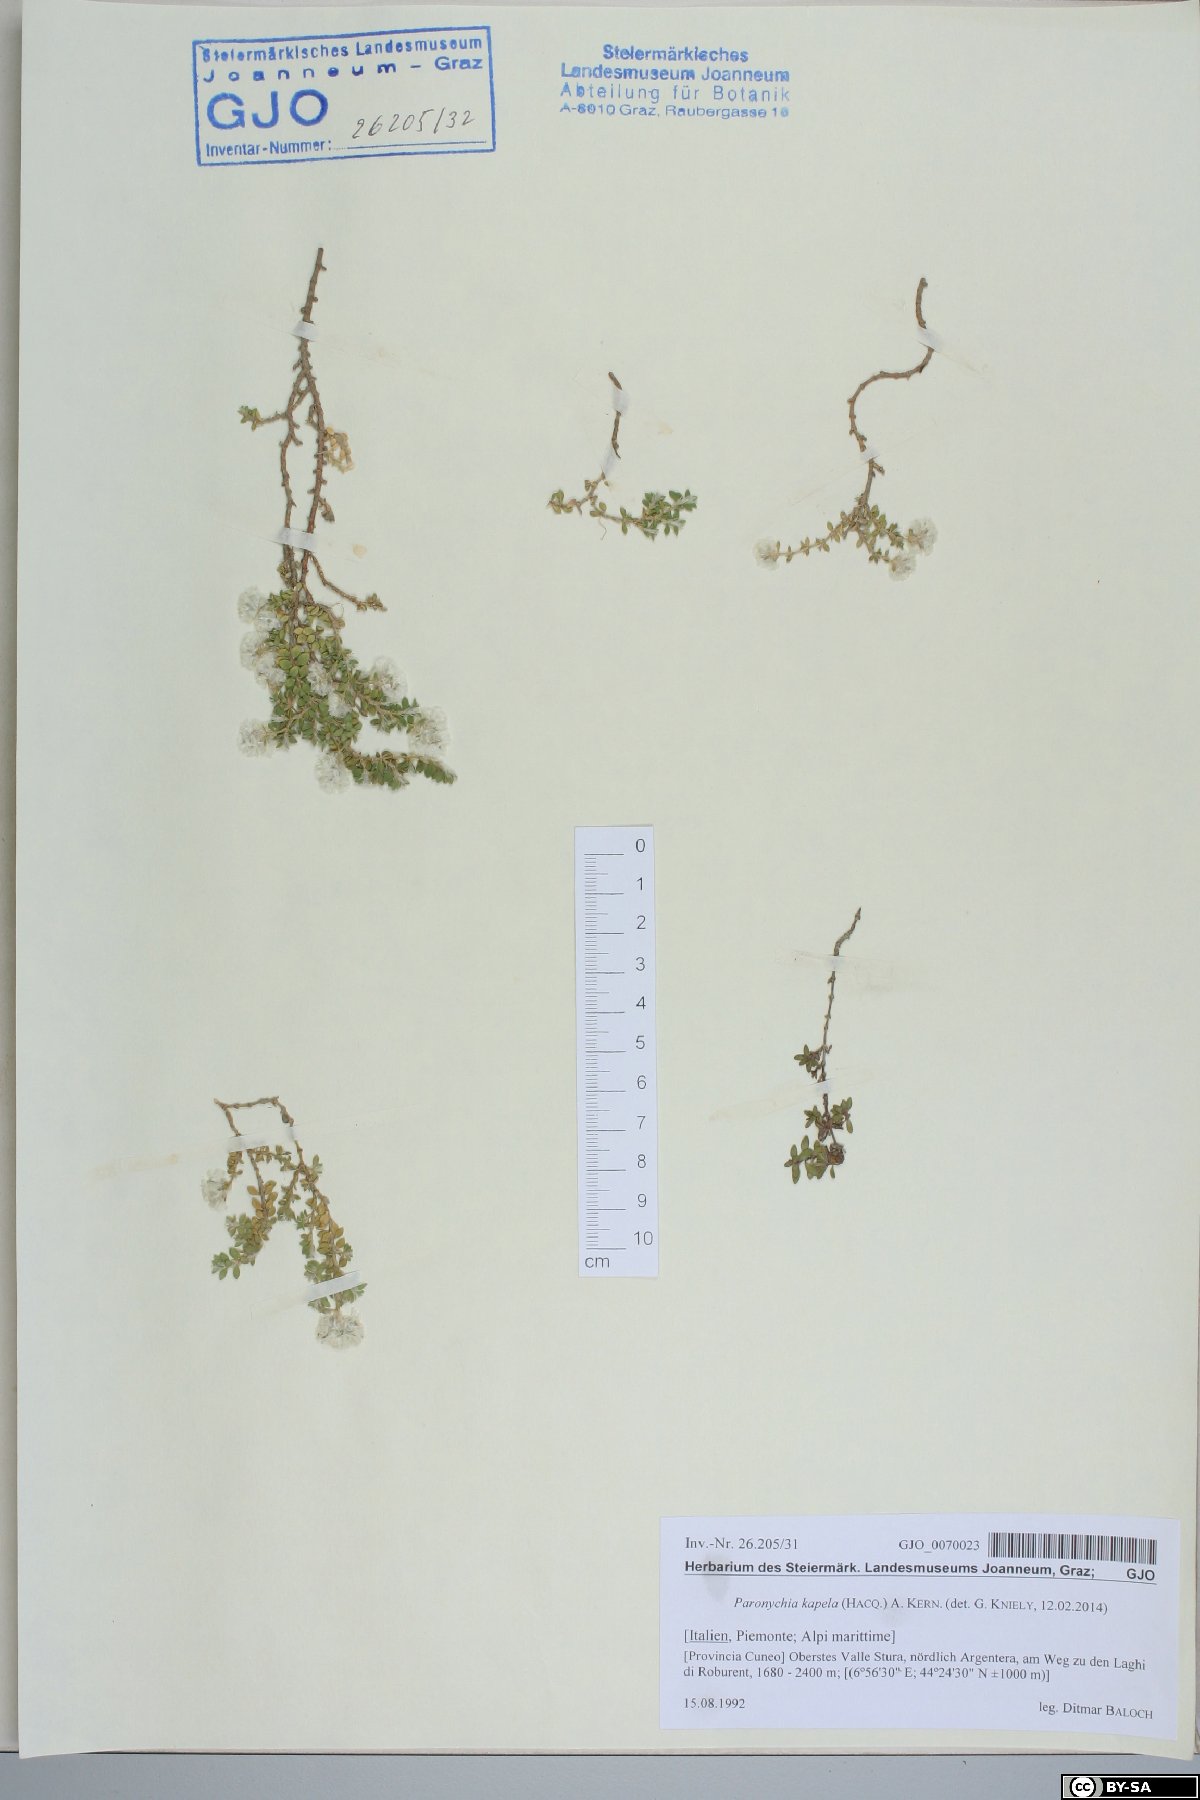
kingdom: Plantae
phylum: Tracheophyta
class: Magnoliopsida
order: Caryophyllales
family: Caryophyllaceae
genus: Paronychia
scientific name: Paronychia kapela
